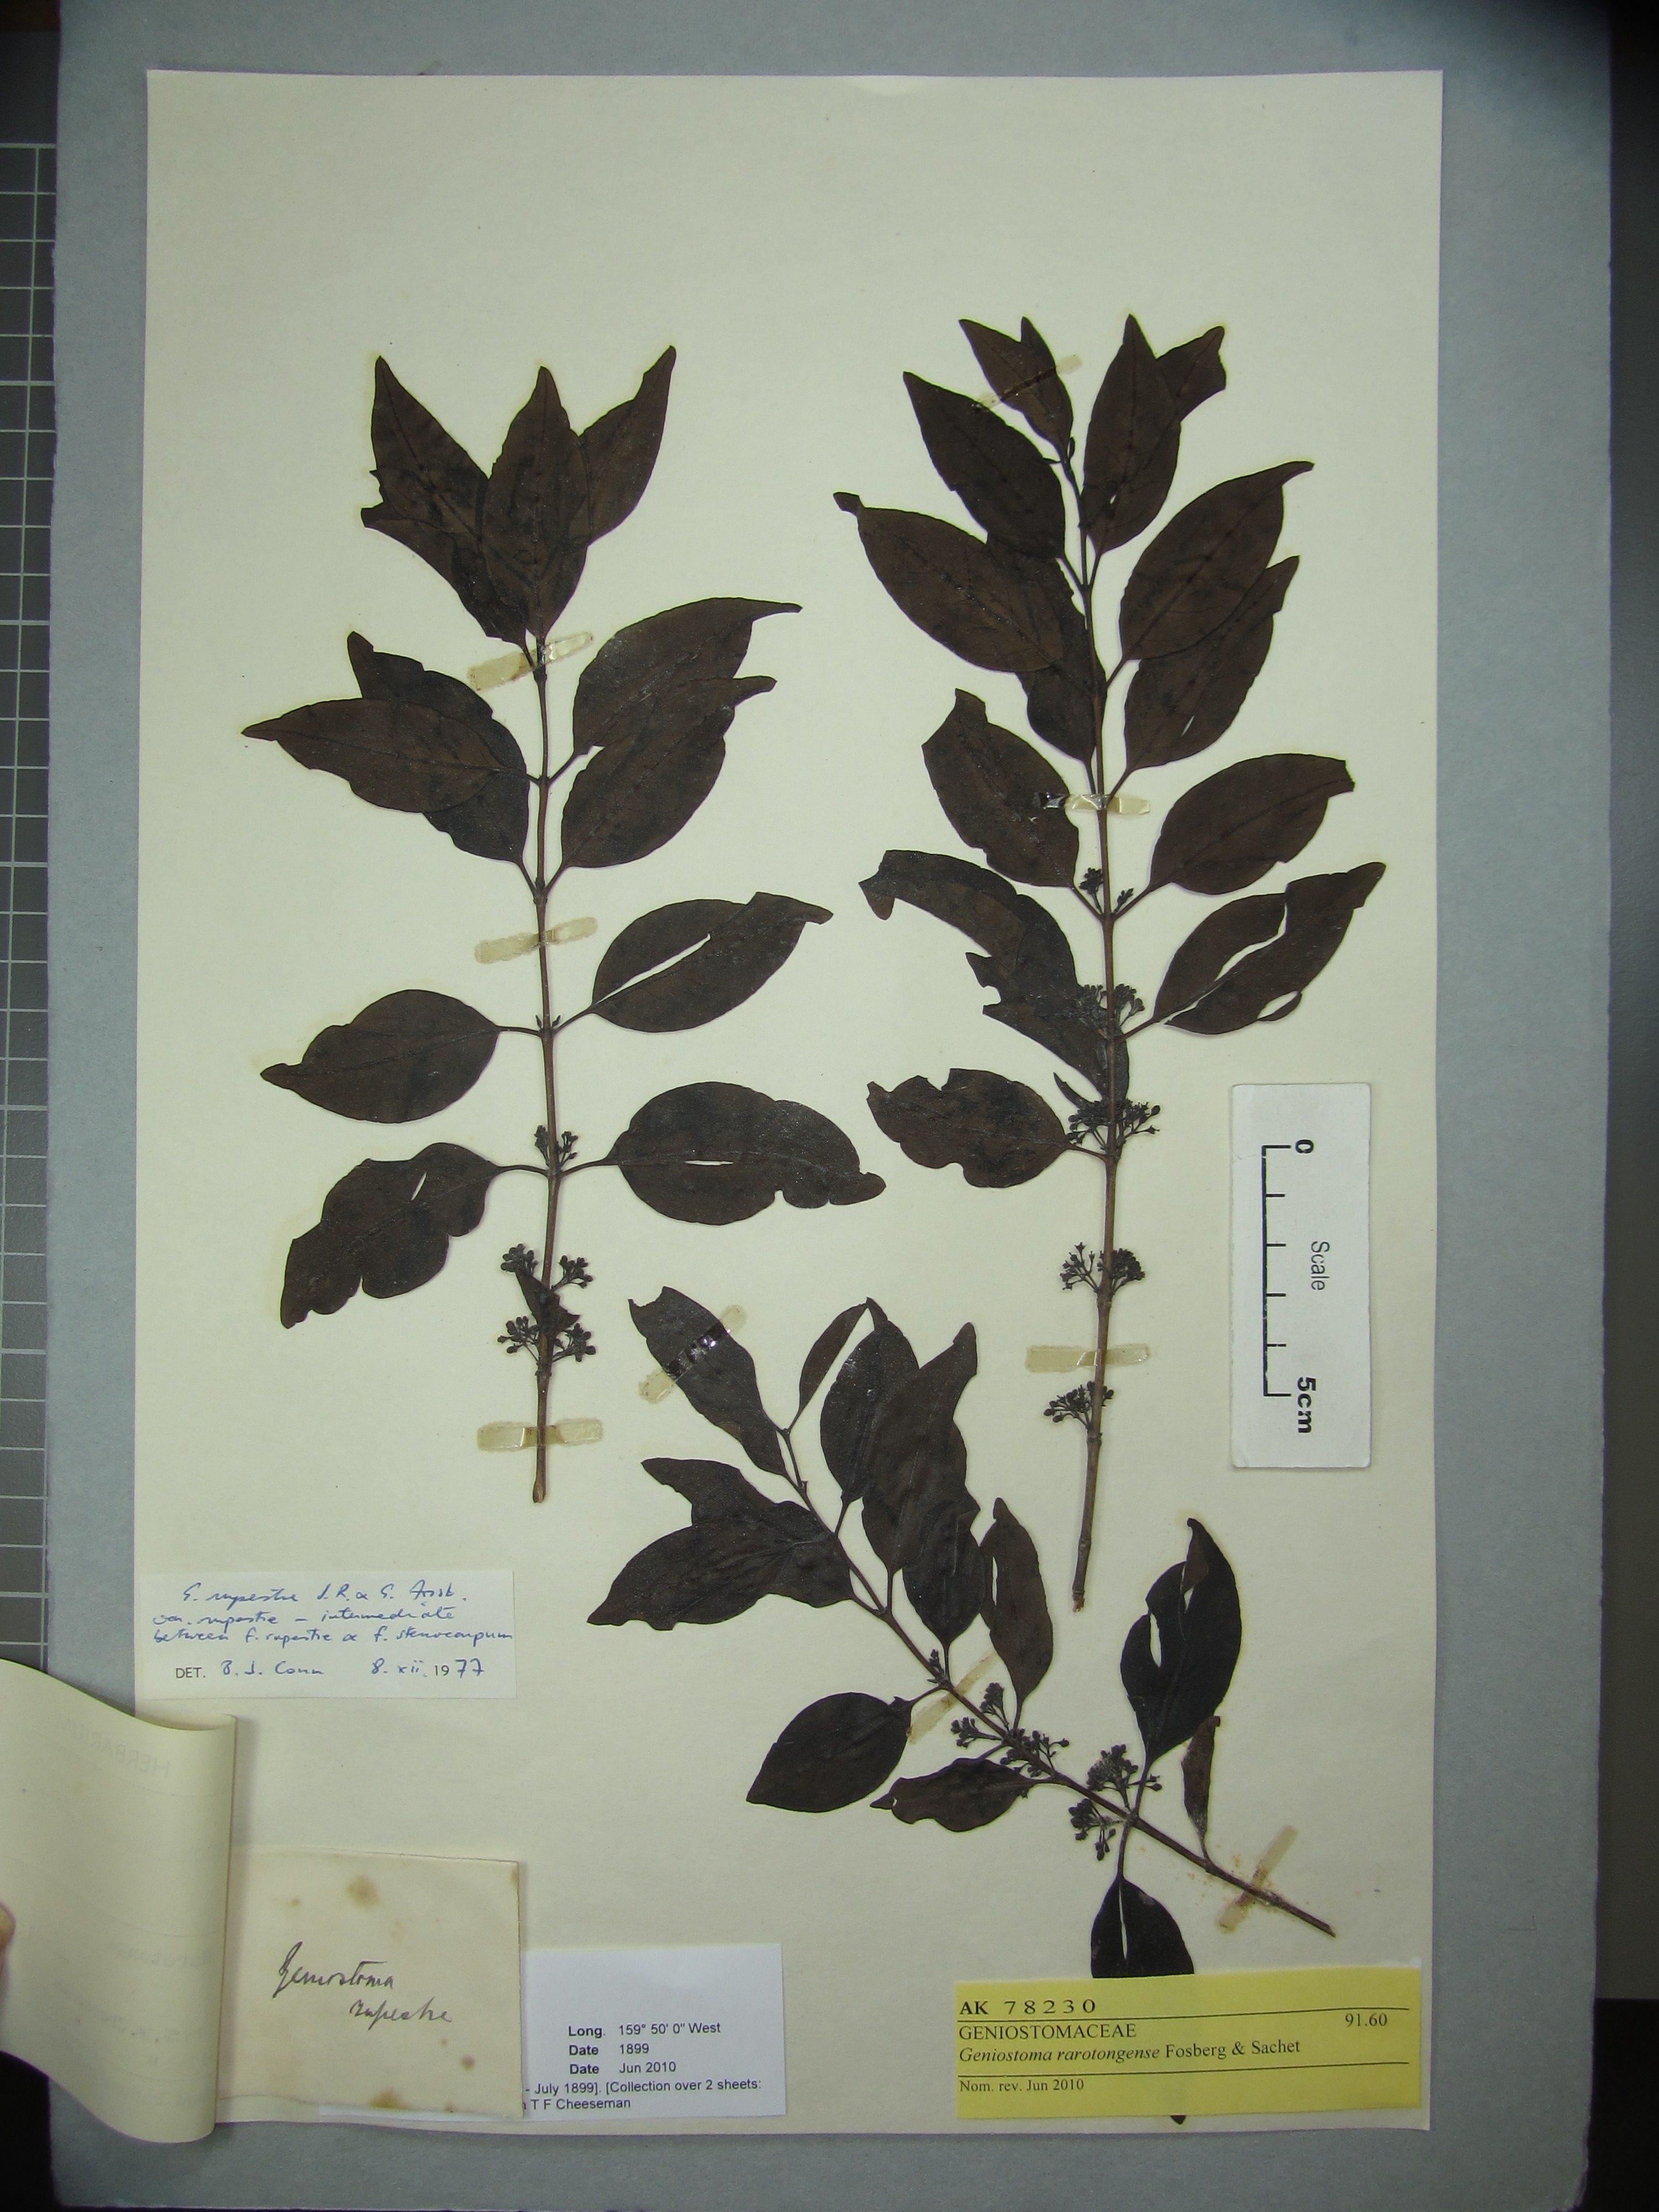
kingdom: Plantae
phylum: Tracheophyta
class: Magnoliopsida
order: Gentianales
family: Loganiaceae
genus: Geniostoma
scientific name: Geniostoma rarotongense
